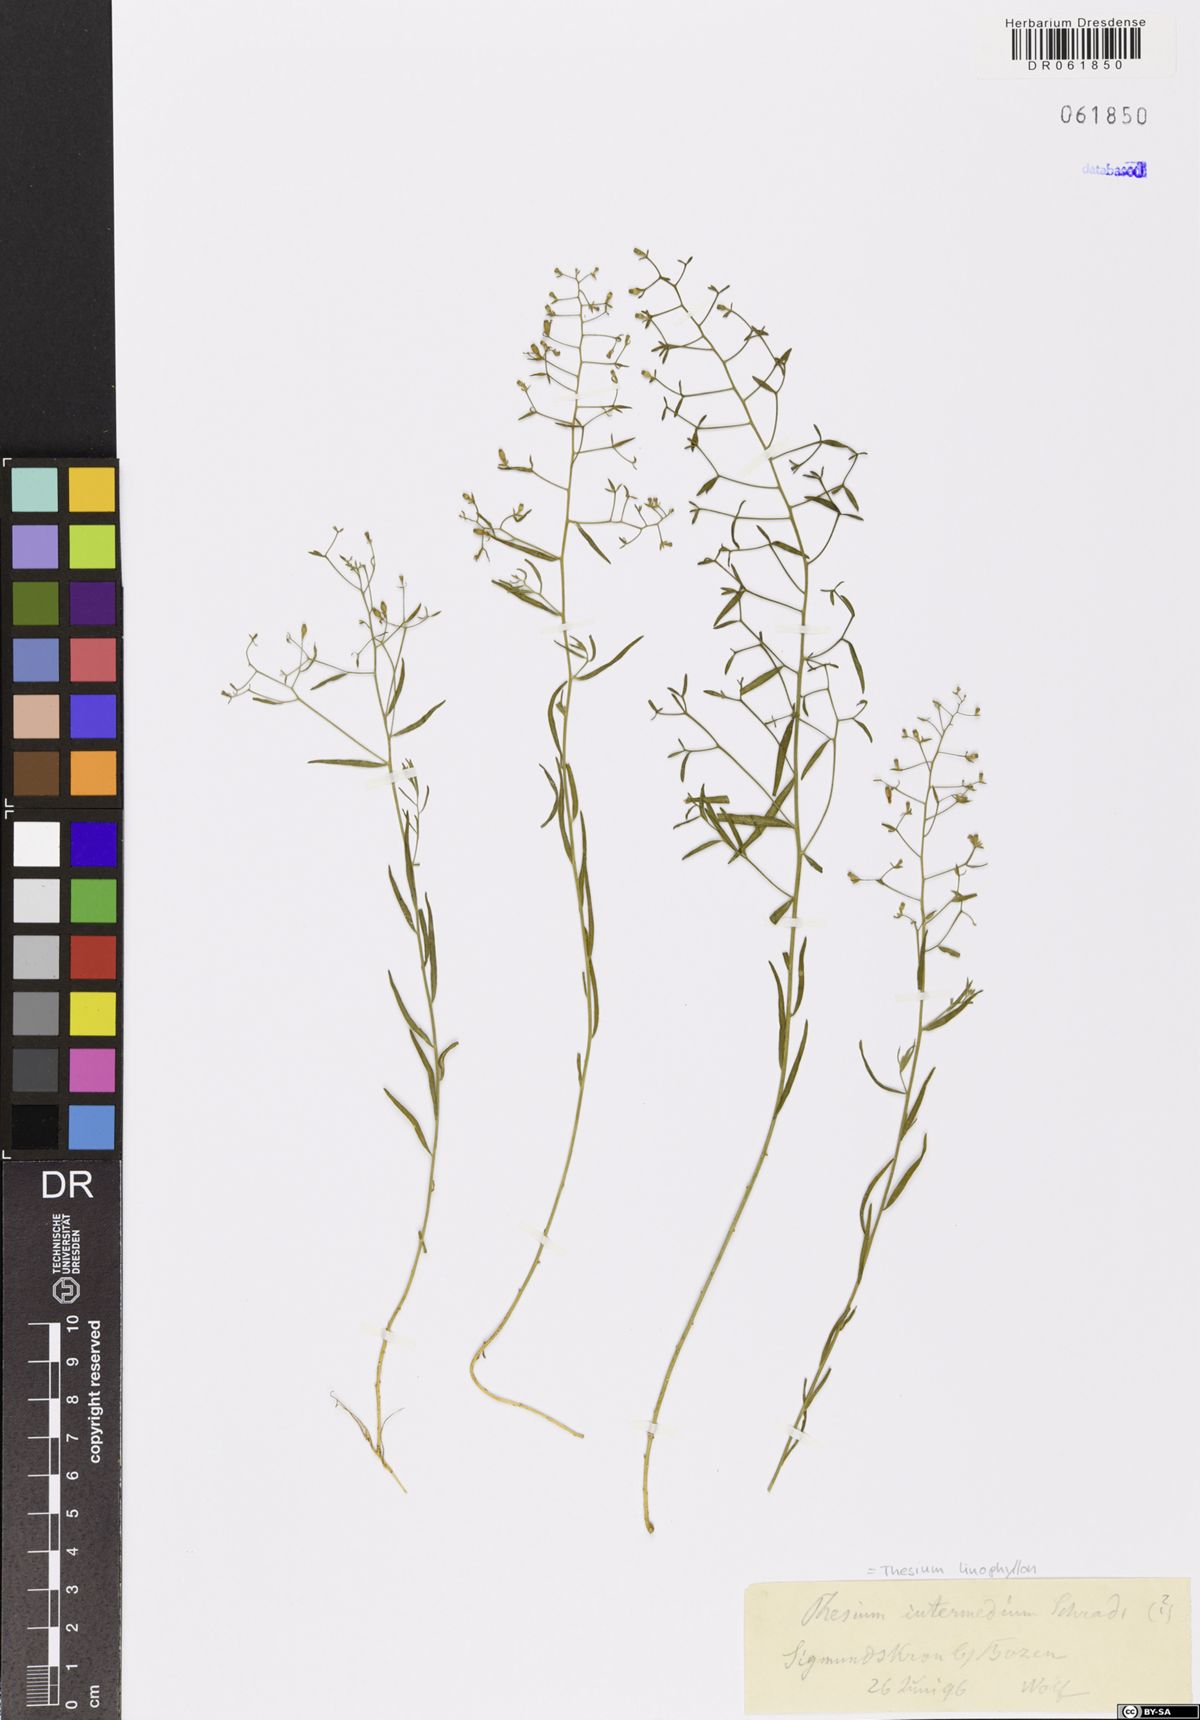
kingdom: Plantae
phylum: Tracheophyta
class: Magnoliopsida
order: Santalales
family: Thesiaceae
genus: Thesium
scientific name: Thesium linophyllon
